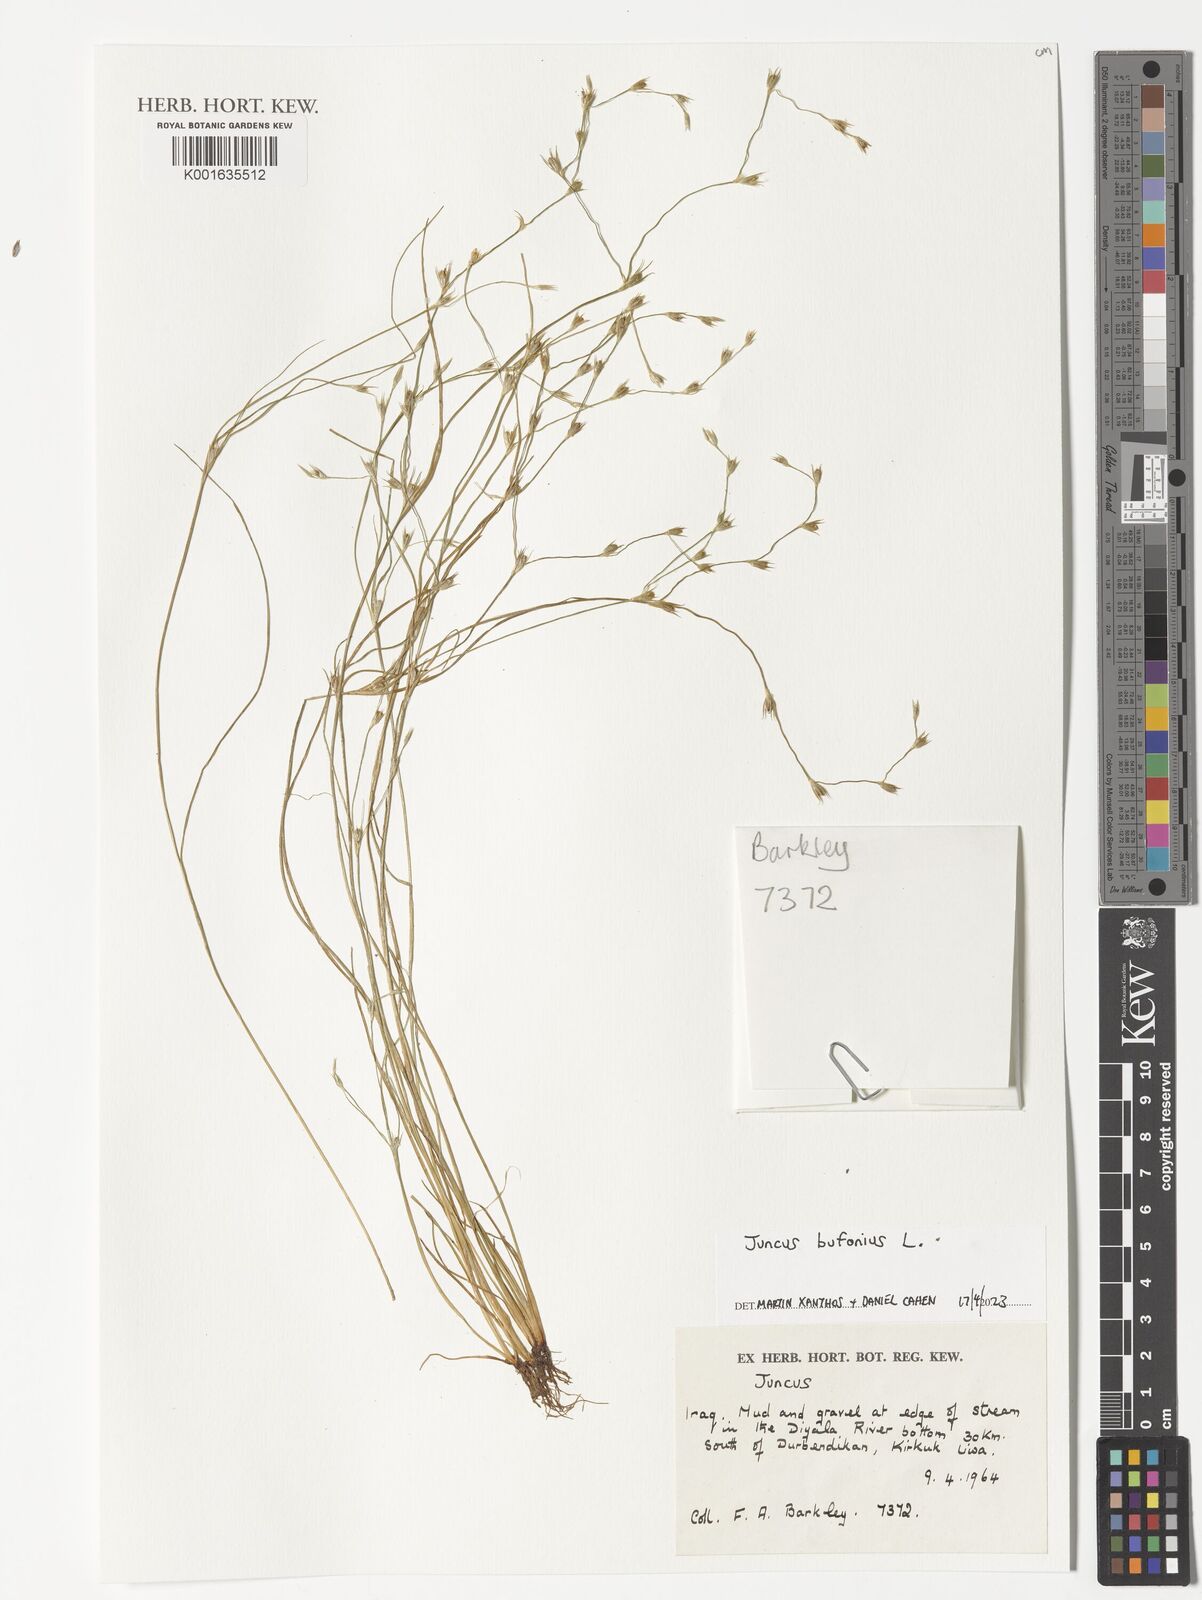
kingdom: Plantae
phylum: Tracheophyta
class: Liliopsida
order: Poales
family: Juncaceae
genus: Juncus
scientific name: Juncus bufonius
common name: Toad rush
